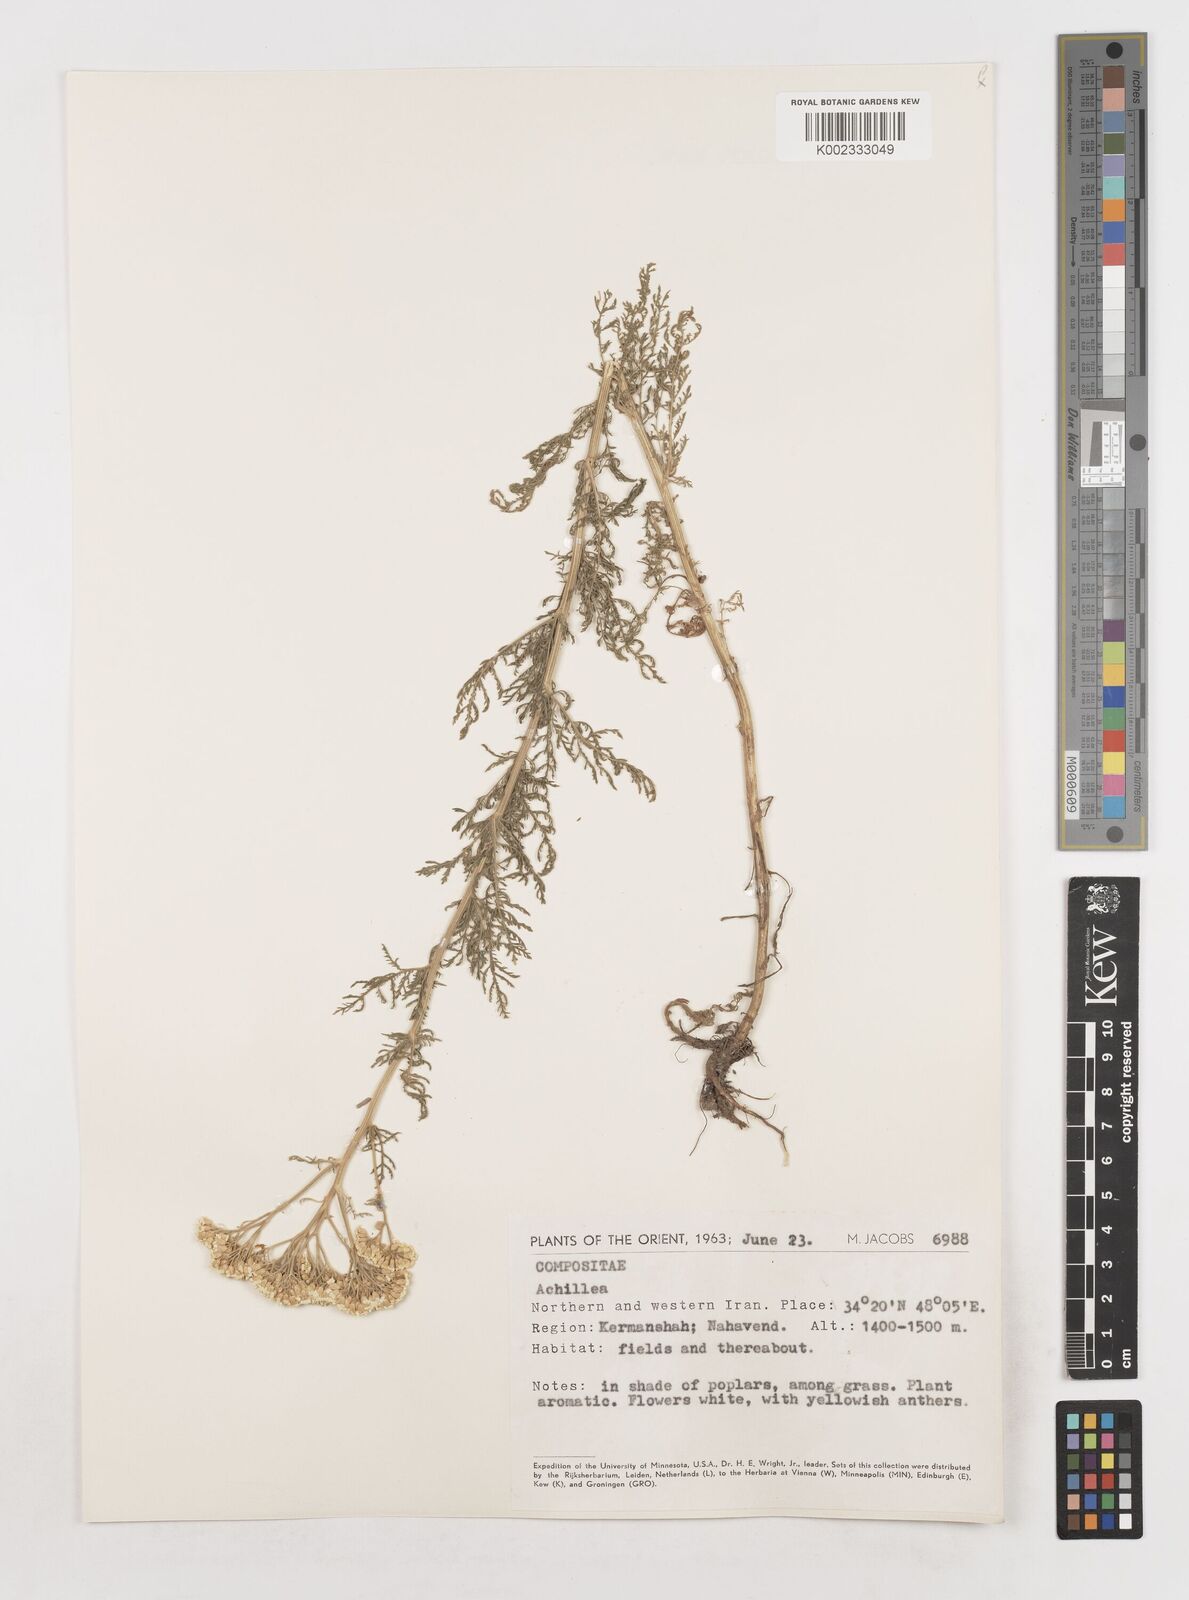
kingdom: Plantae
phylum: Tracheophyta
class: Magnoliopsida
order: Asterales
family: Asteraceae
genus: Achillea
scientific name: Achillea
